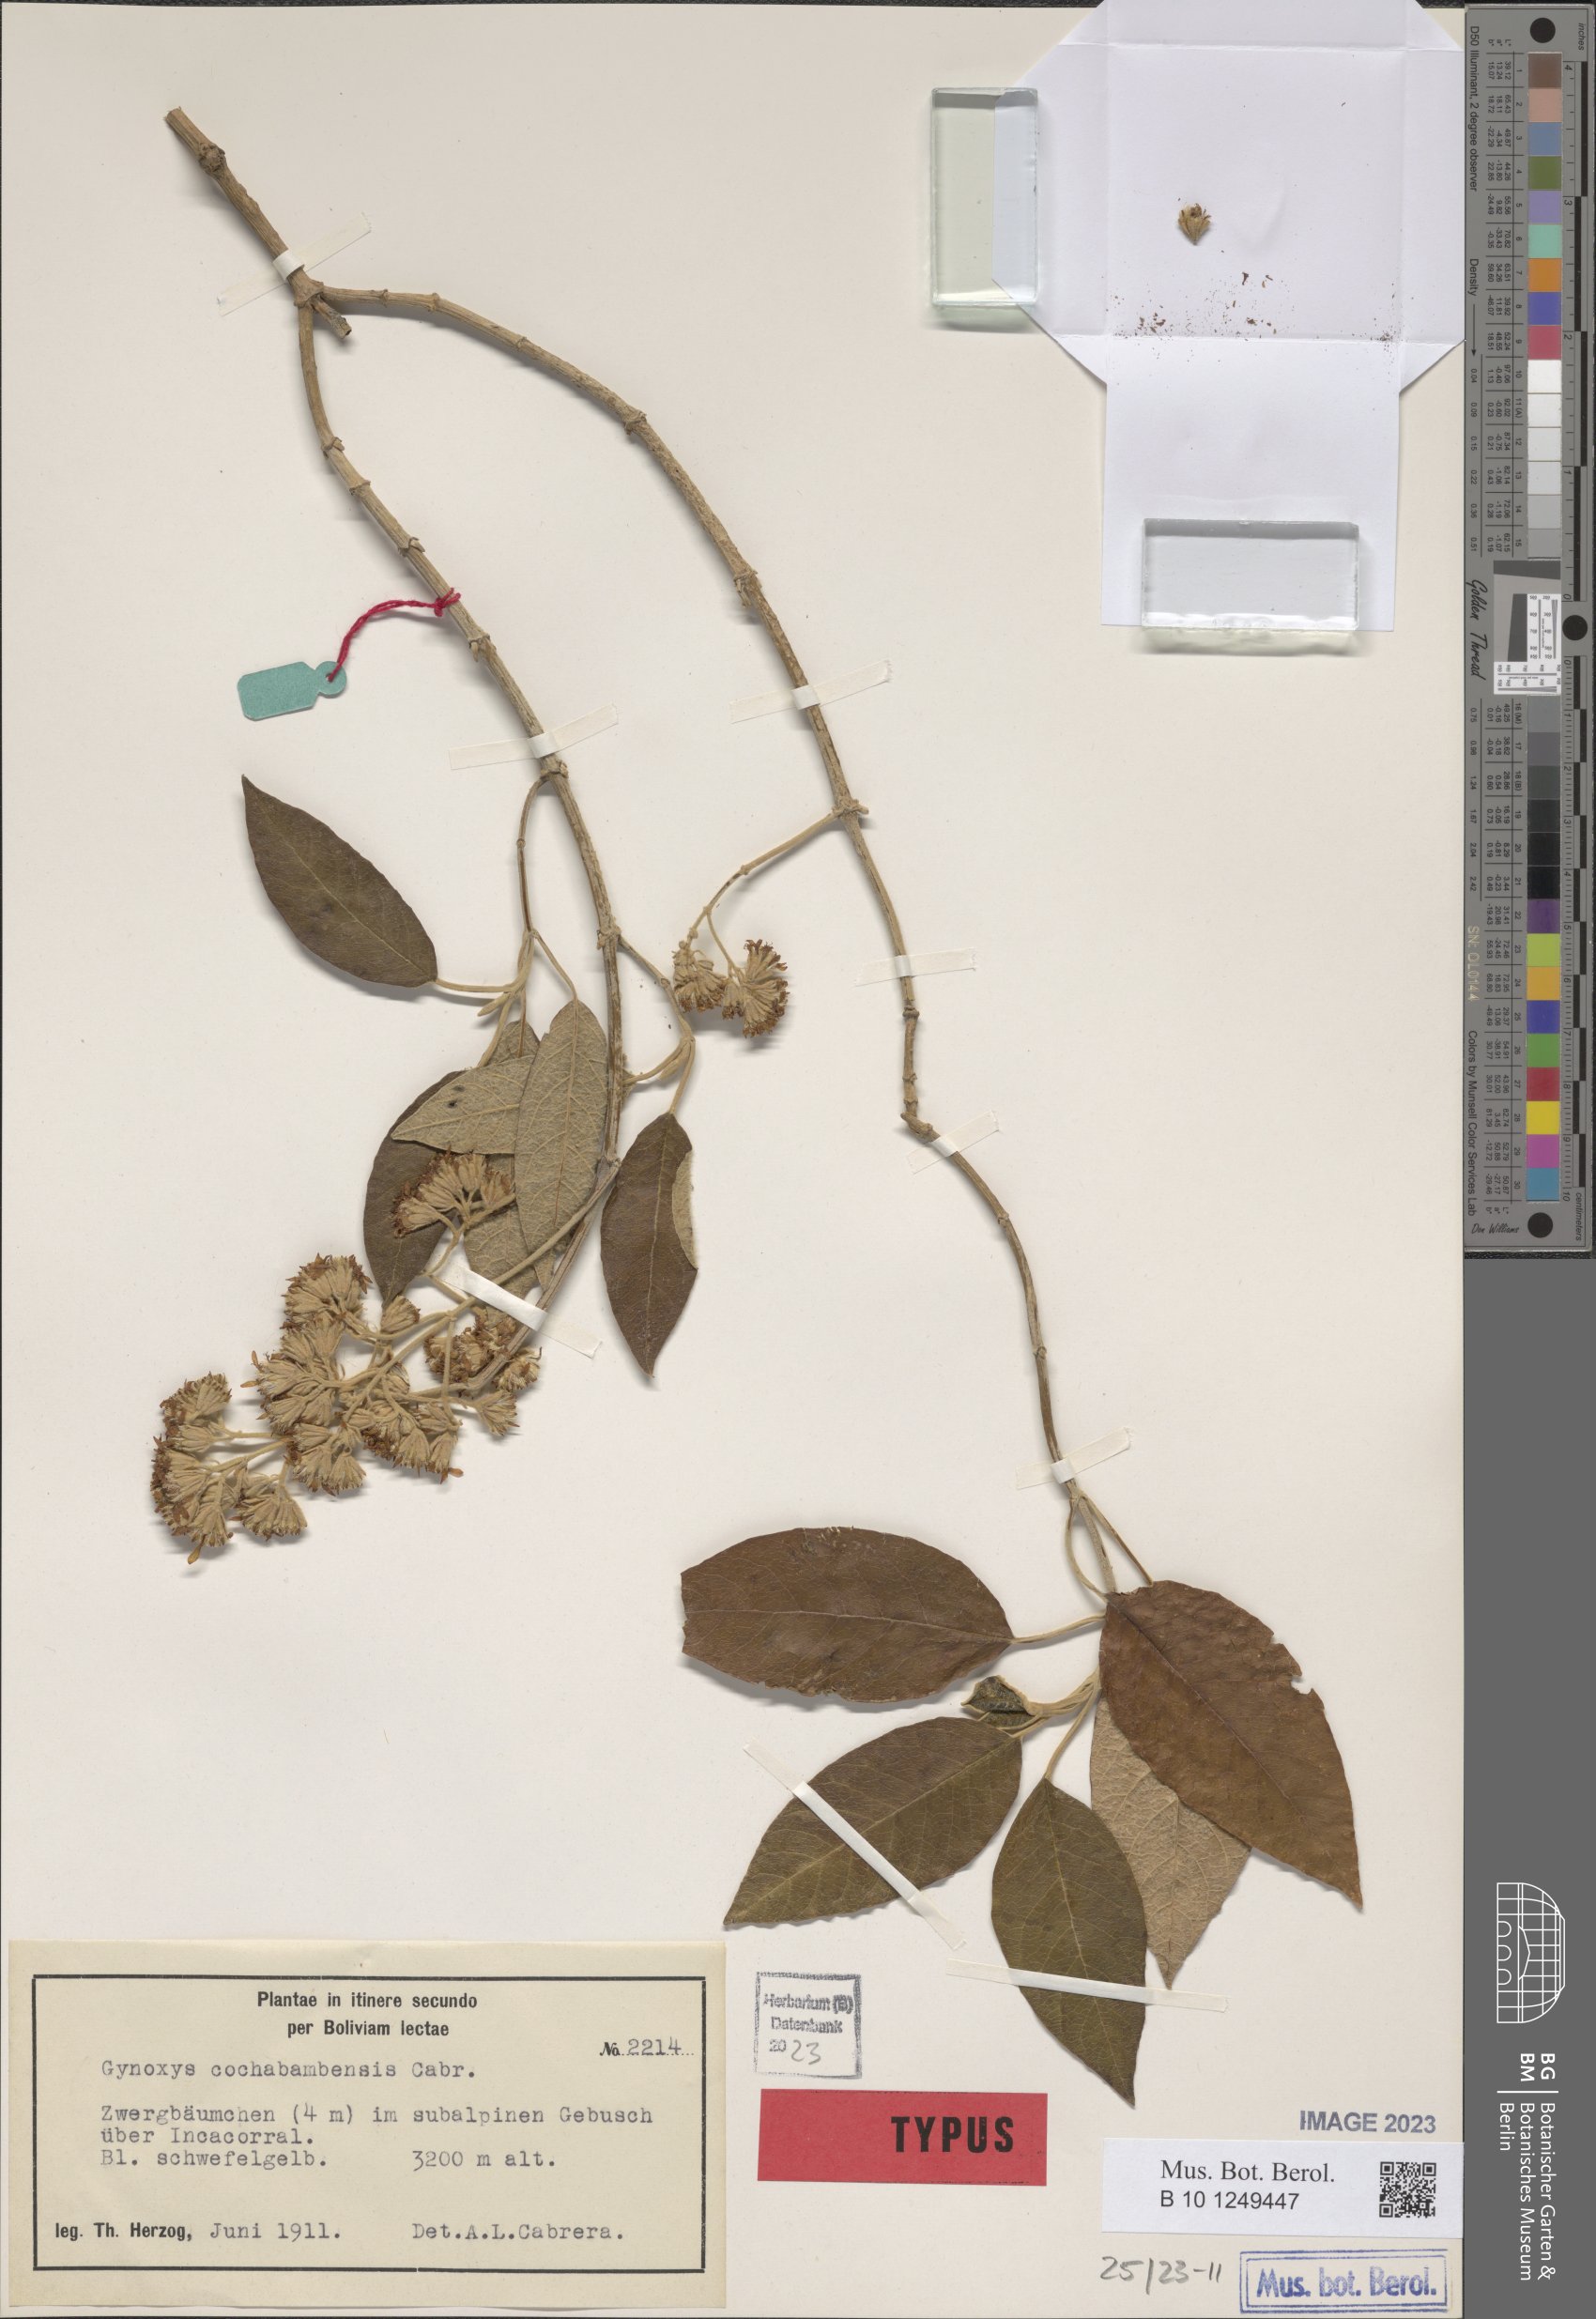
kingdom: Plantae
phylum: Tracheophyta
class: Magnoliopsida
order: Asterales
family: Asteraceae
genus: Gynoxys
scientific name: Gynoxys cochabambensis
